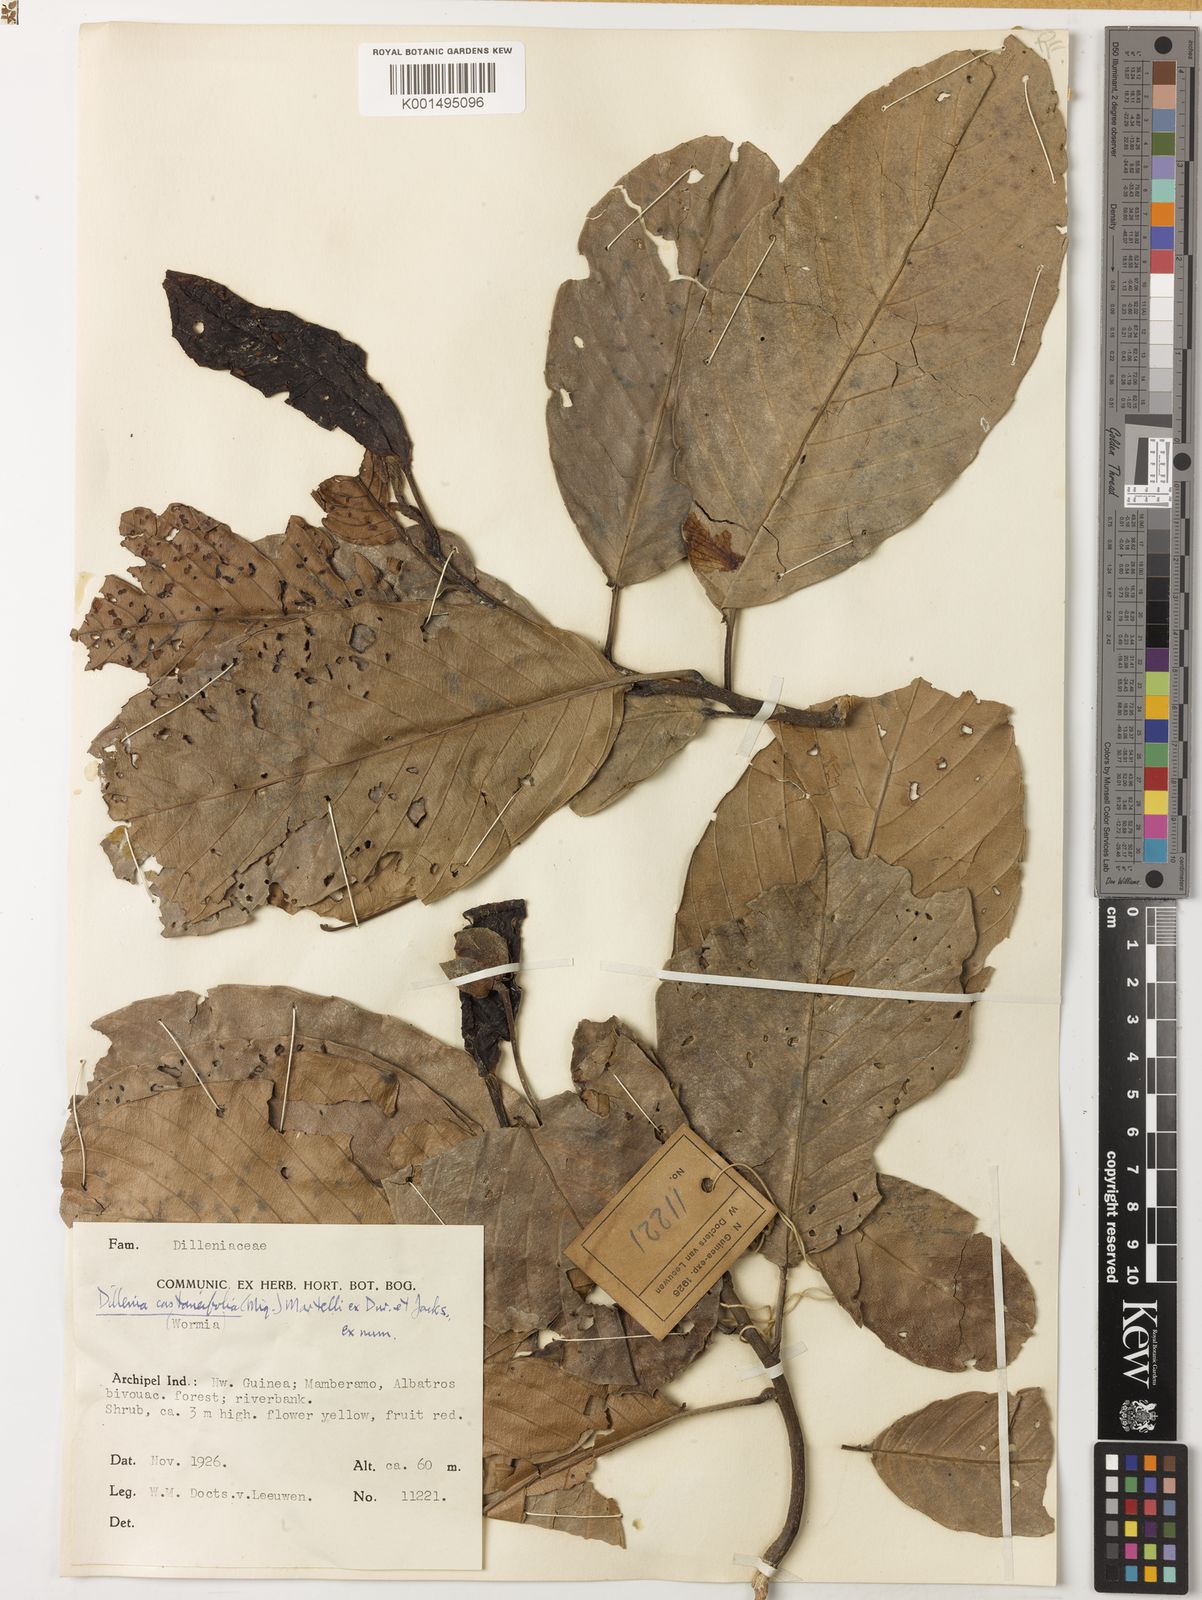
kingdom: Plantae
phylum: Tracheophyta
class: Magnoliopsida
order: Dilleniales
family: Dilleniaceae
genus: Dillenia
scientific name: Dillenia castaneifolia
